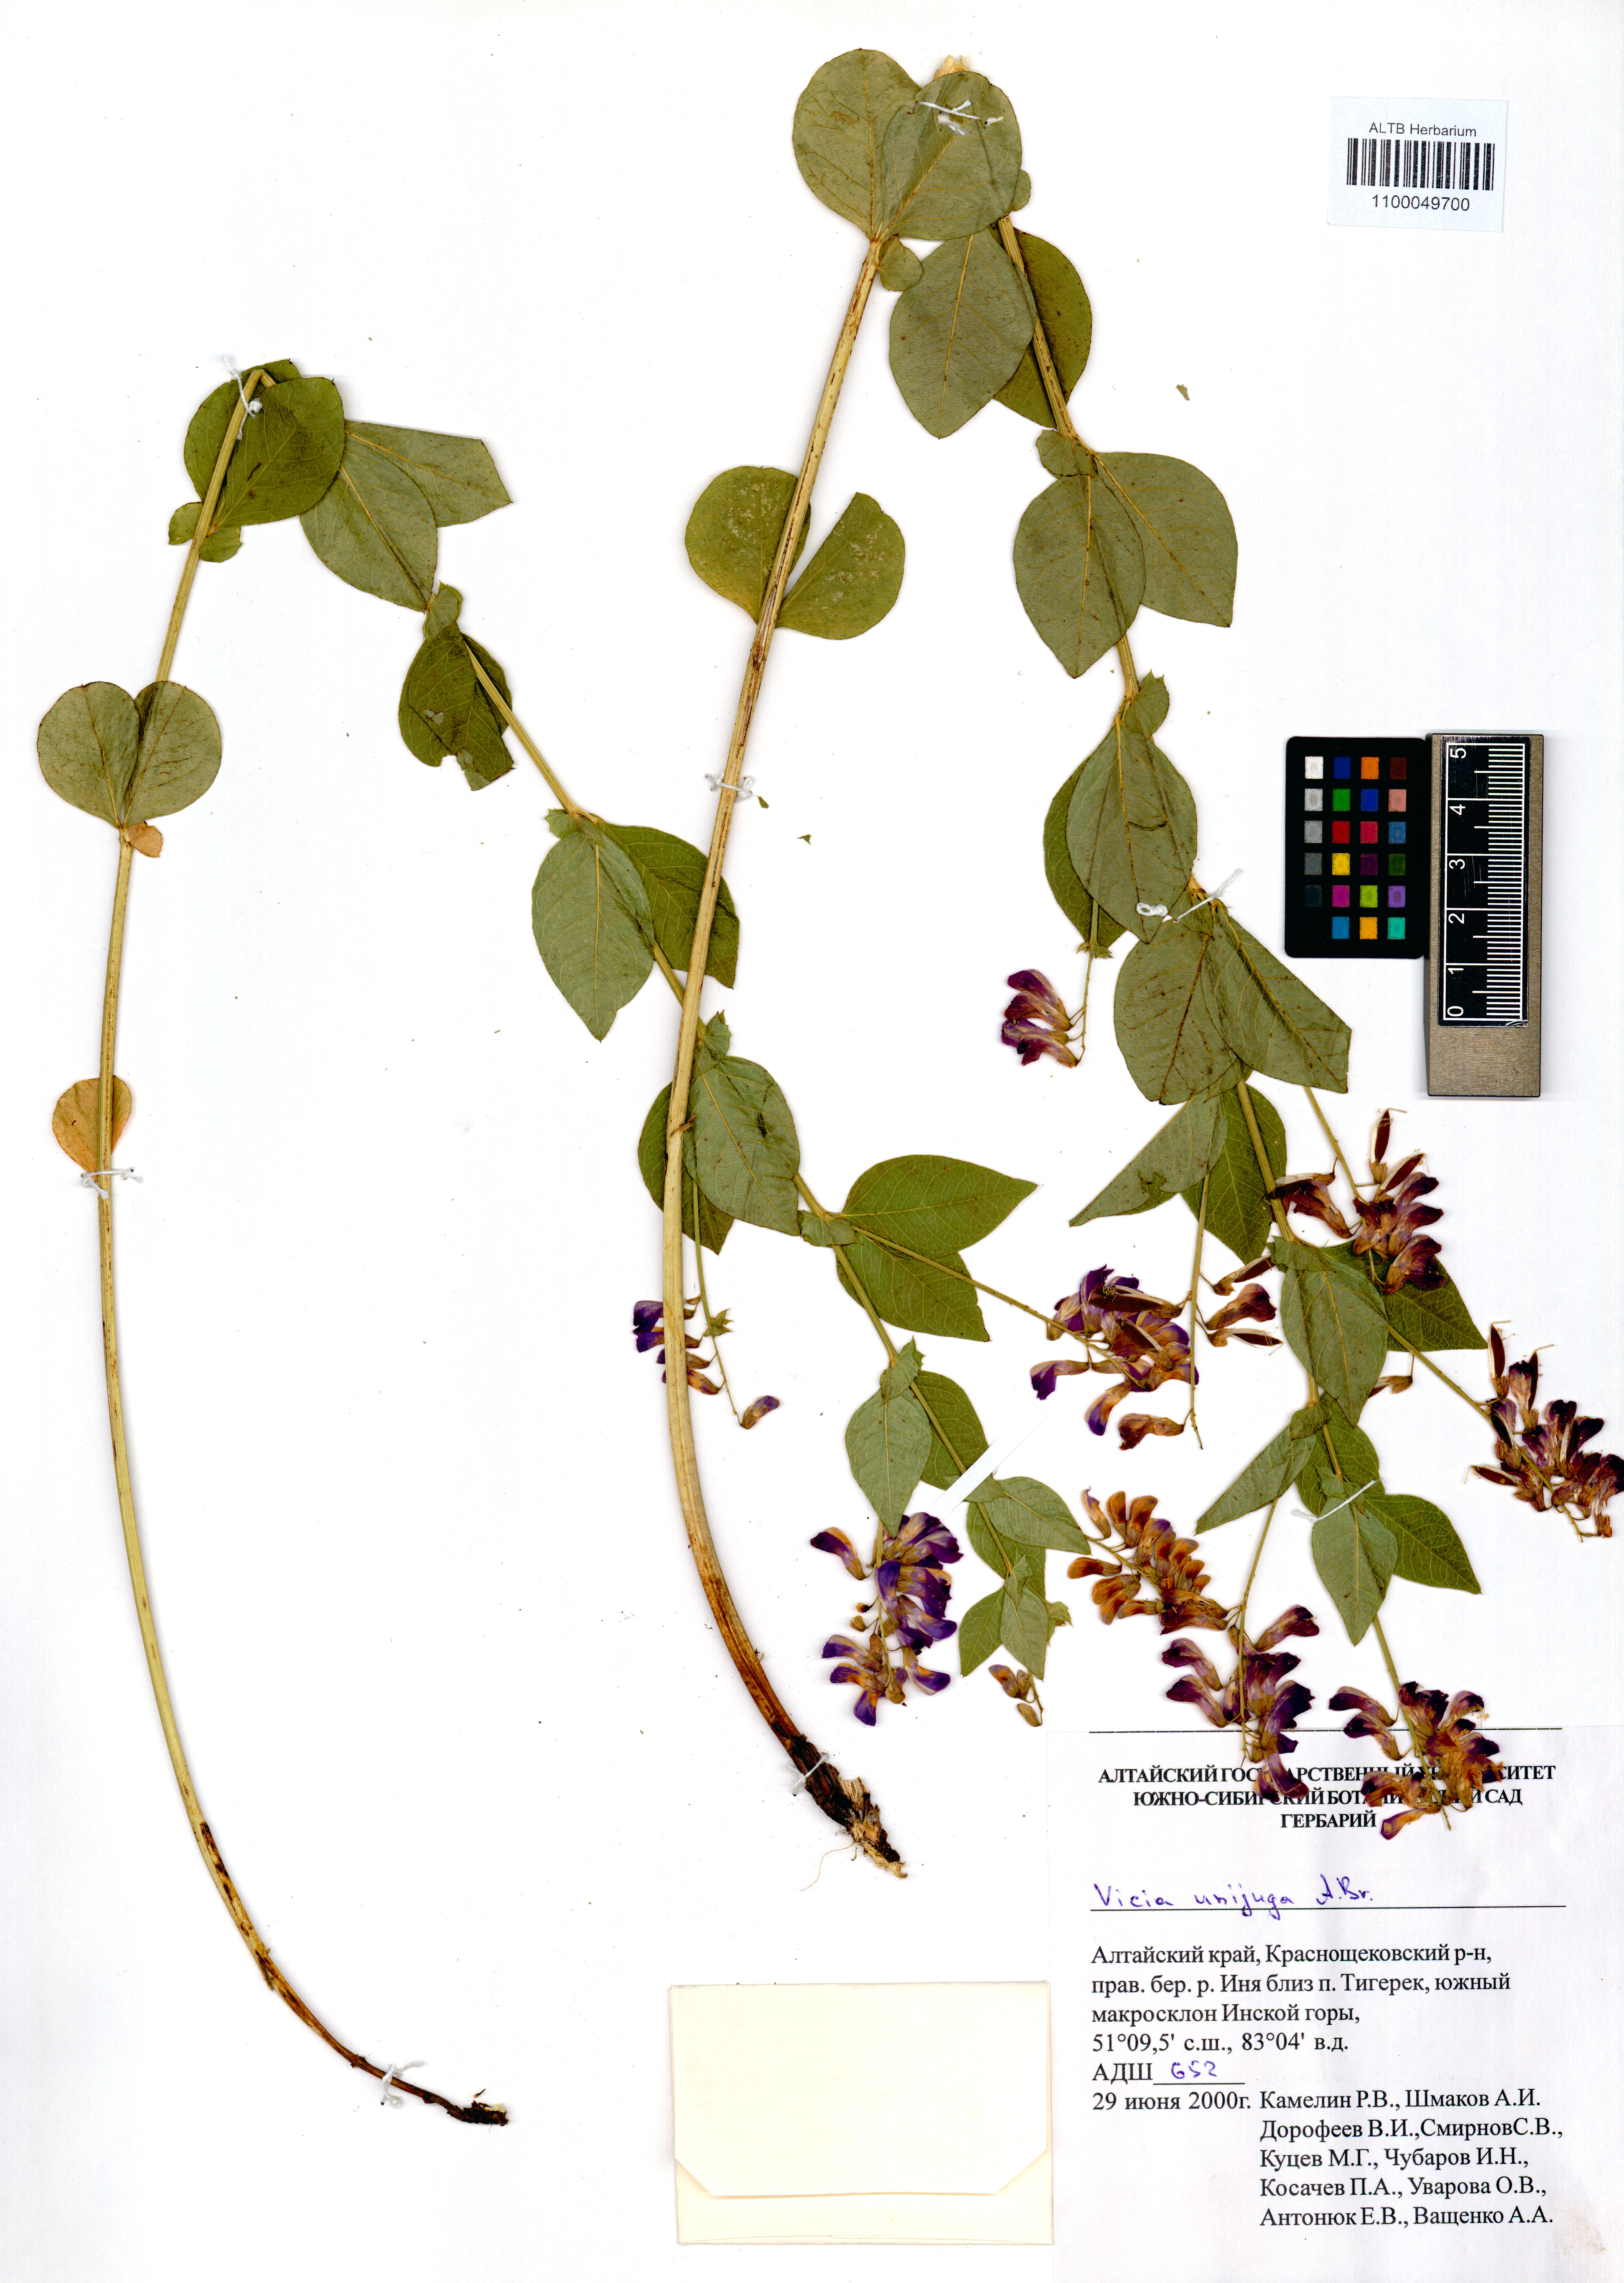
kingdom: Plantae
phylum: Tracheophyta
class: Magnoliopsida
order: Fabales
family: Fabaceae
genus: Vicia
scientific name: Vicia unijuga
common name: Two-leaf vetch
